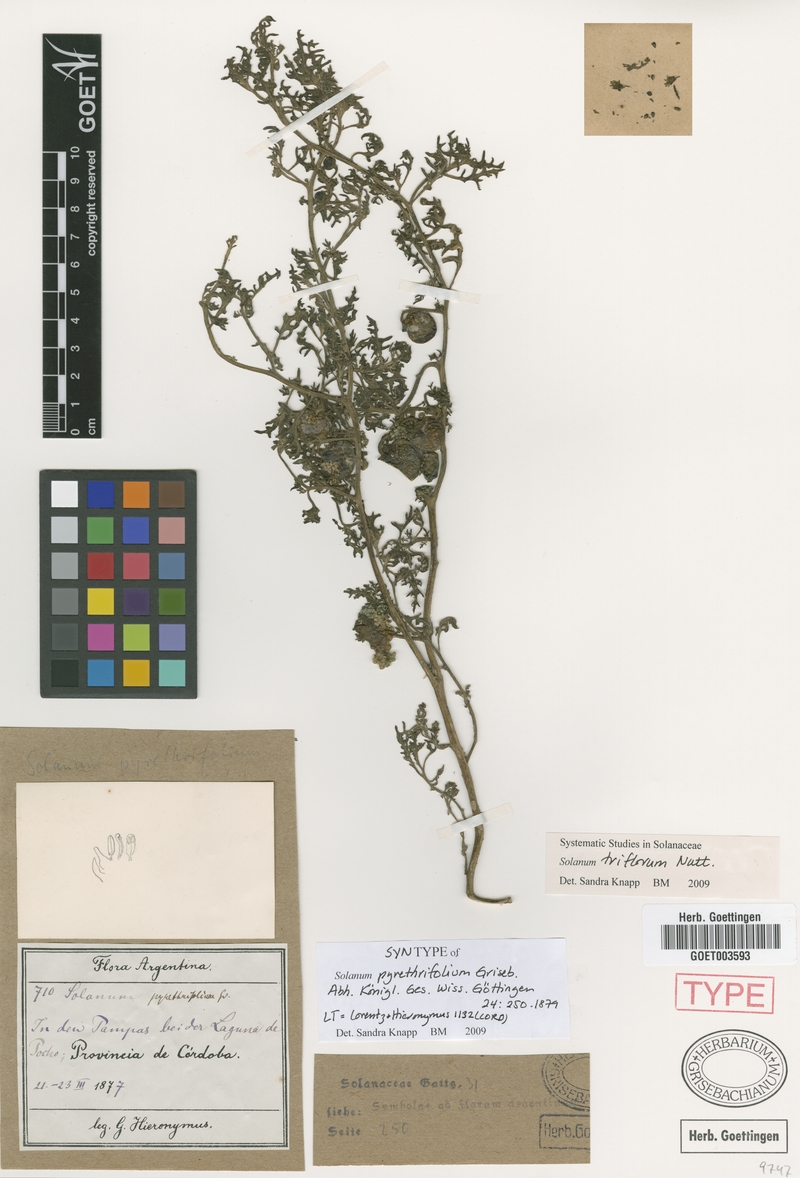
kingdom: Plantae
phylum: Tracheophyta
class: Magnoliopsida
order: Solanales
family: Solanaceae
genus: Solanum
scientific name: Solanum triflorum
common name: Small nightshade
